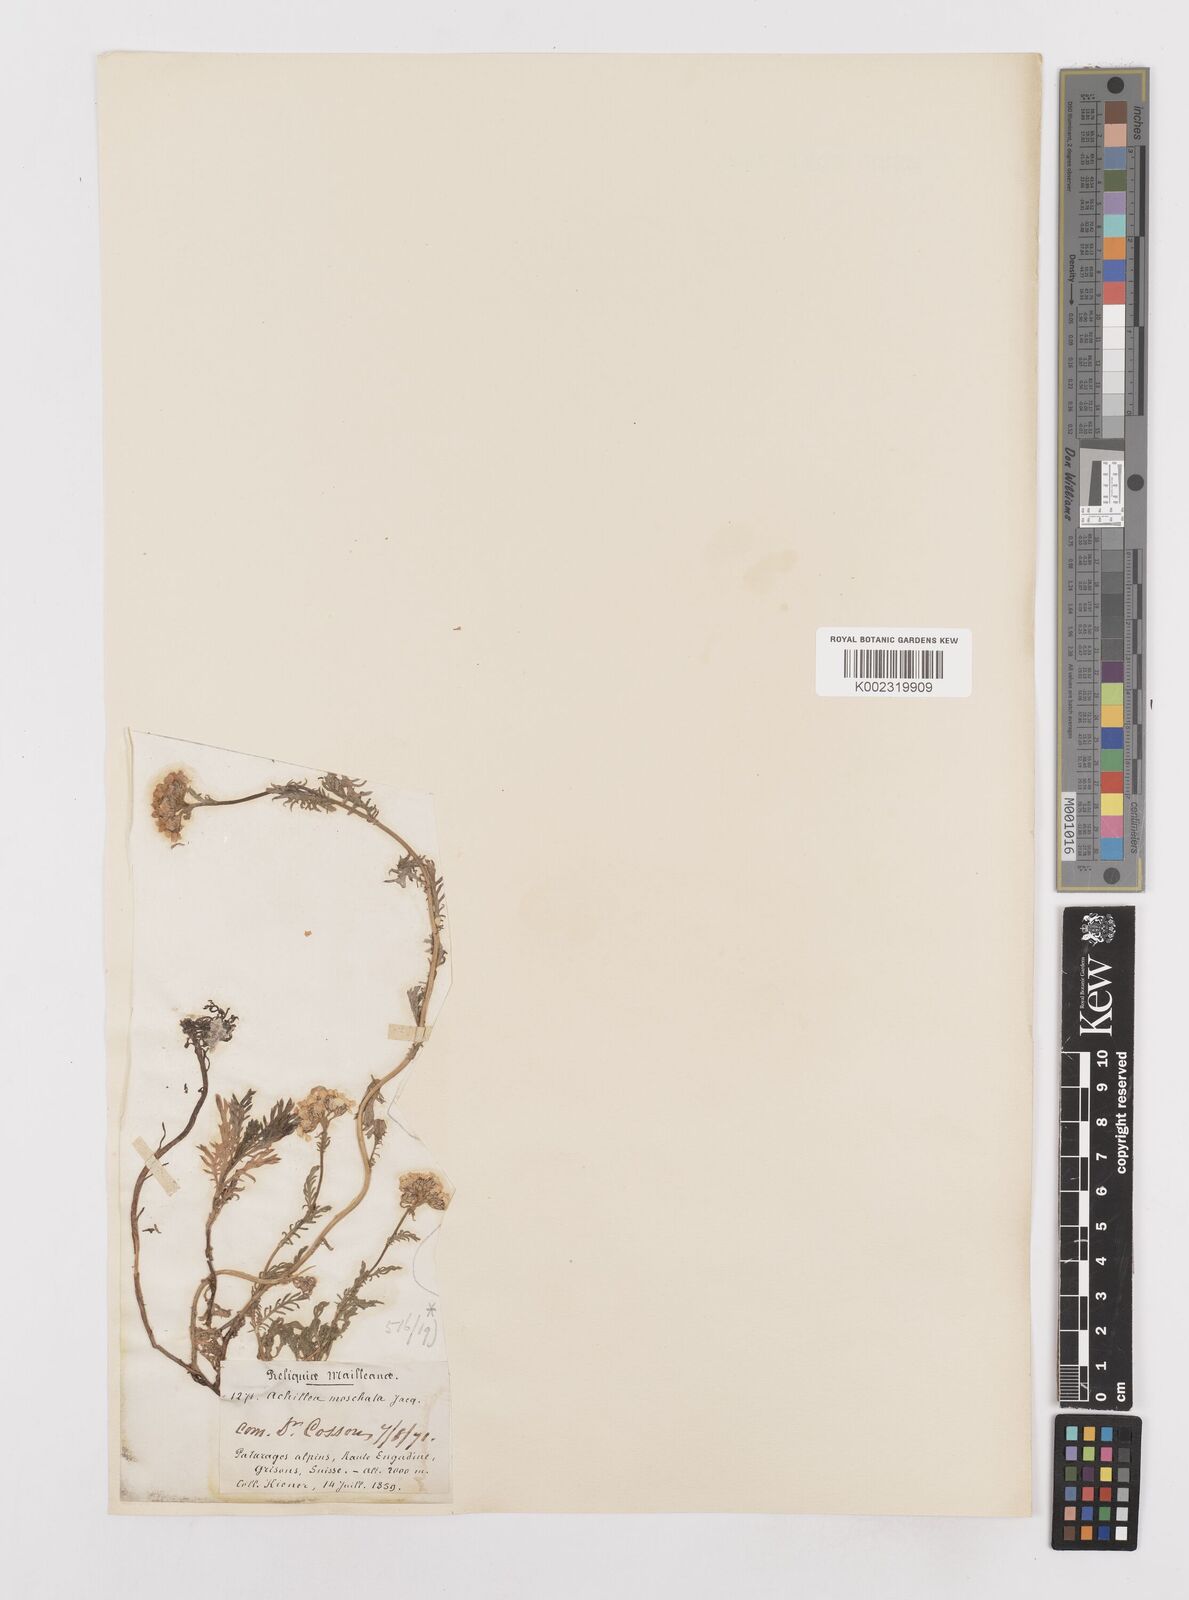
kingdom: Plantae
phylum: Tracheophyta
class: Magnoliopsida
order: Asterales
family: Asteraceae
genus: Achillea
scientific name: Achillea erba-rotta
